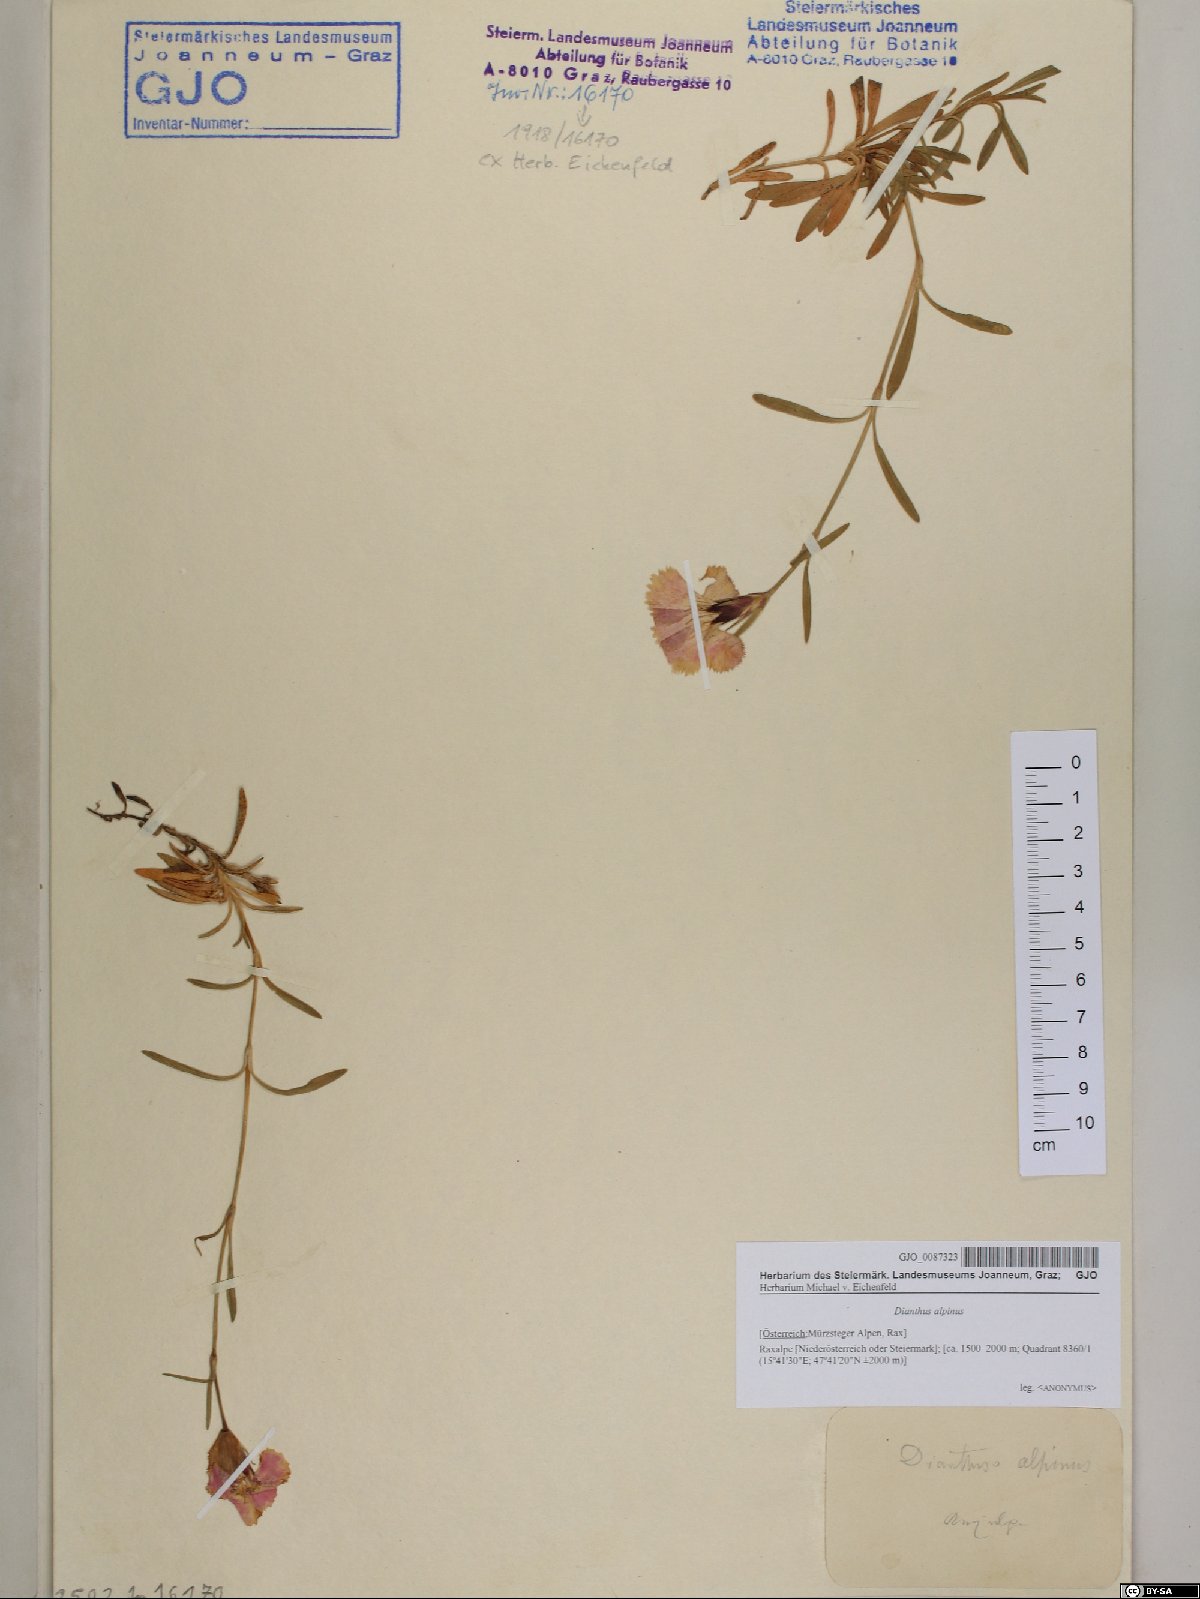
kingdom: Plantae
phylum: Tracheophyta
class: Magnoliopsida
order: Caryophyllales
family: Caryophyllaceae
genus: Dianthus
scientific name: Dianthus alpinus
